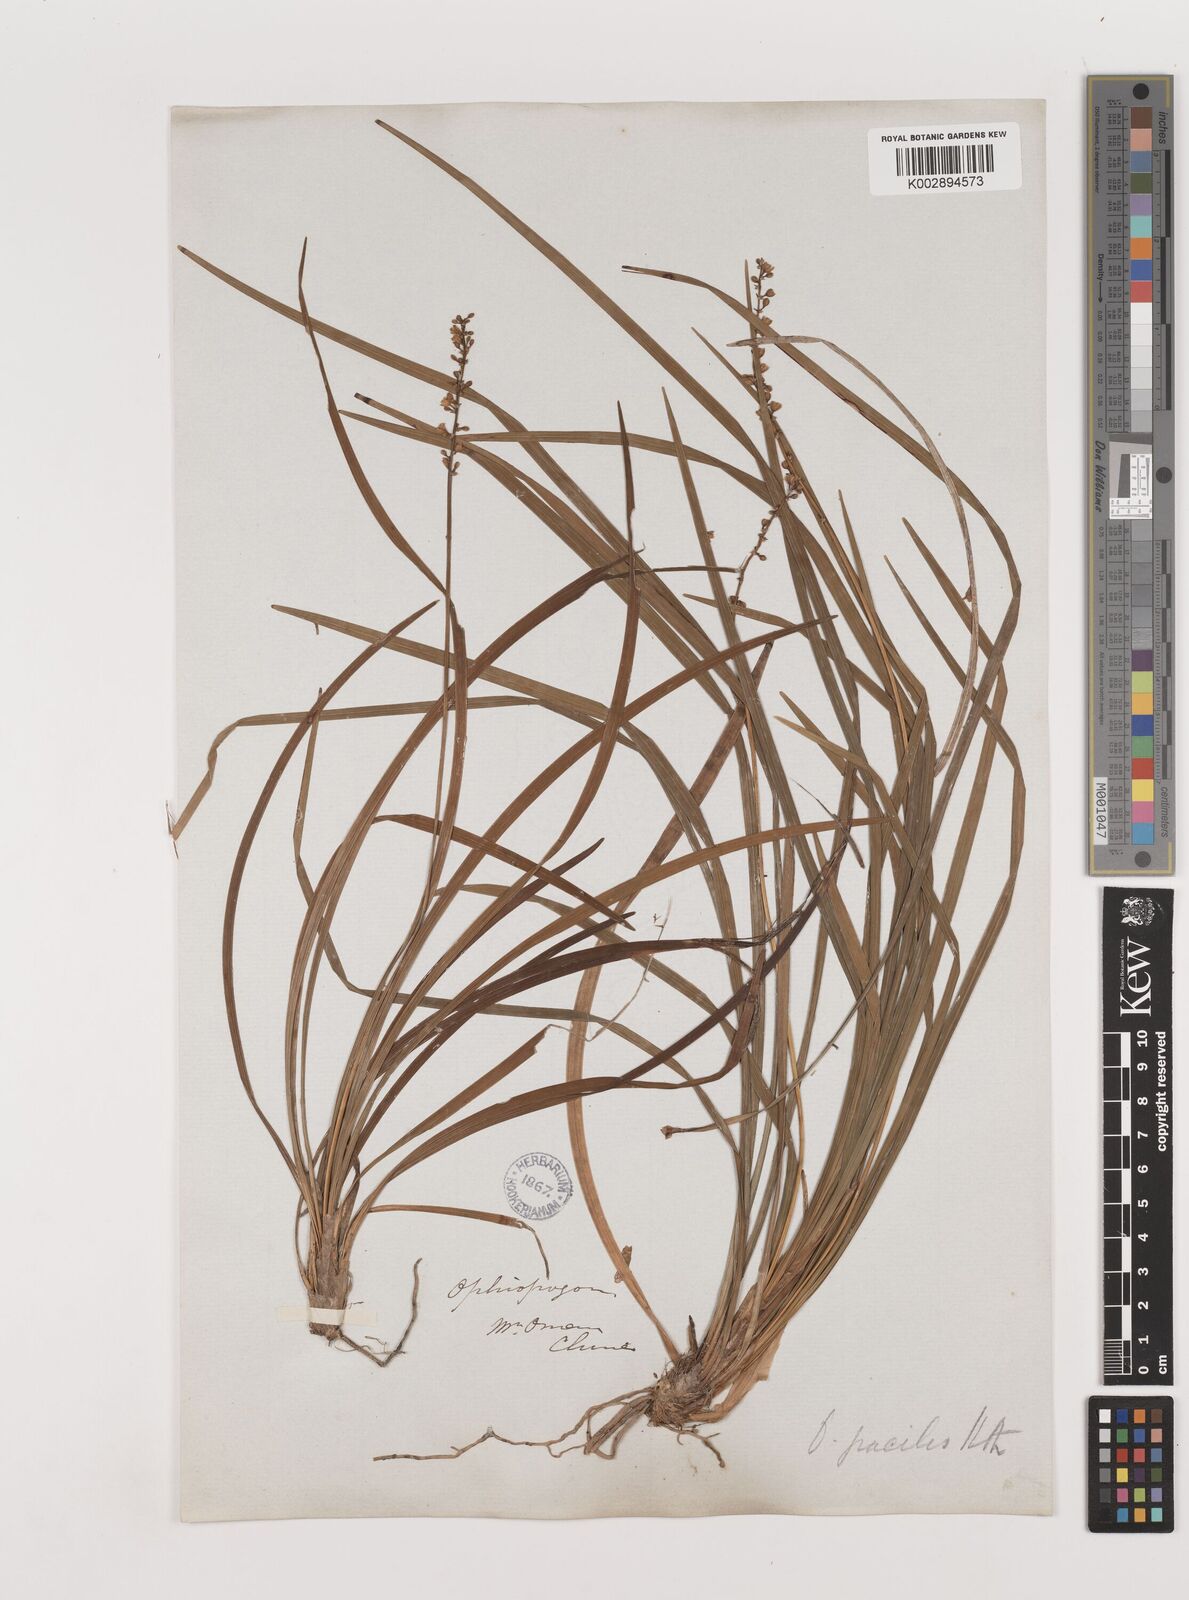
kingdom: Plantae
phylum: Tracheophyta
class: Liliopsida
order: Asparagales
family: Asparagaceae
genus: Liriope
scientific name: Liriope spicata
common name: Creeping liriope
